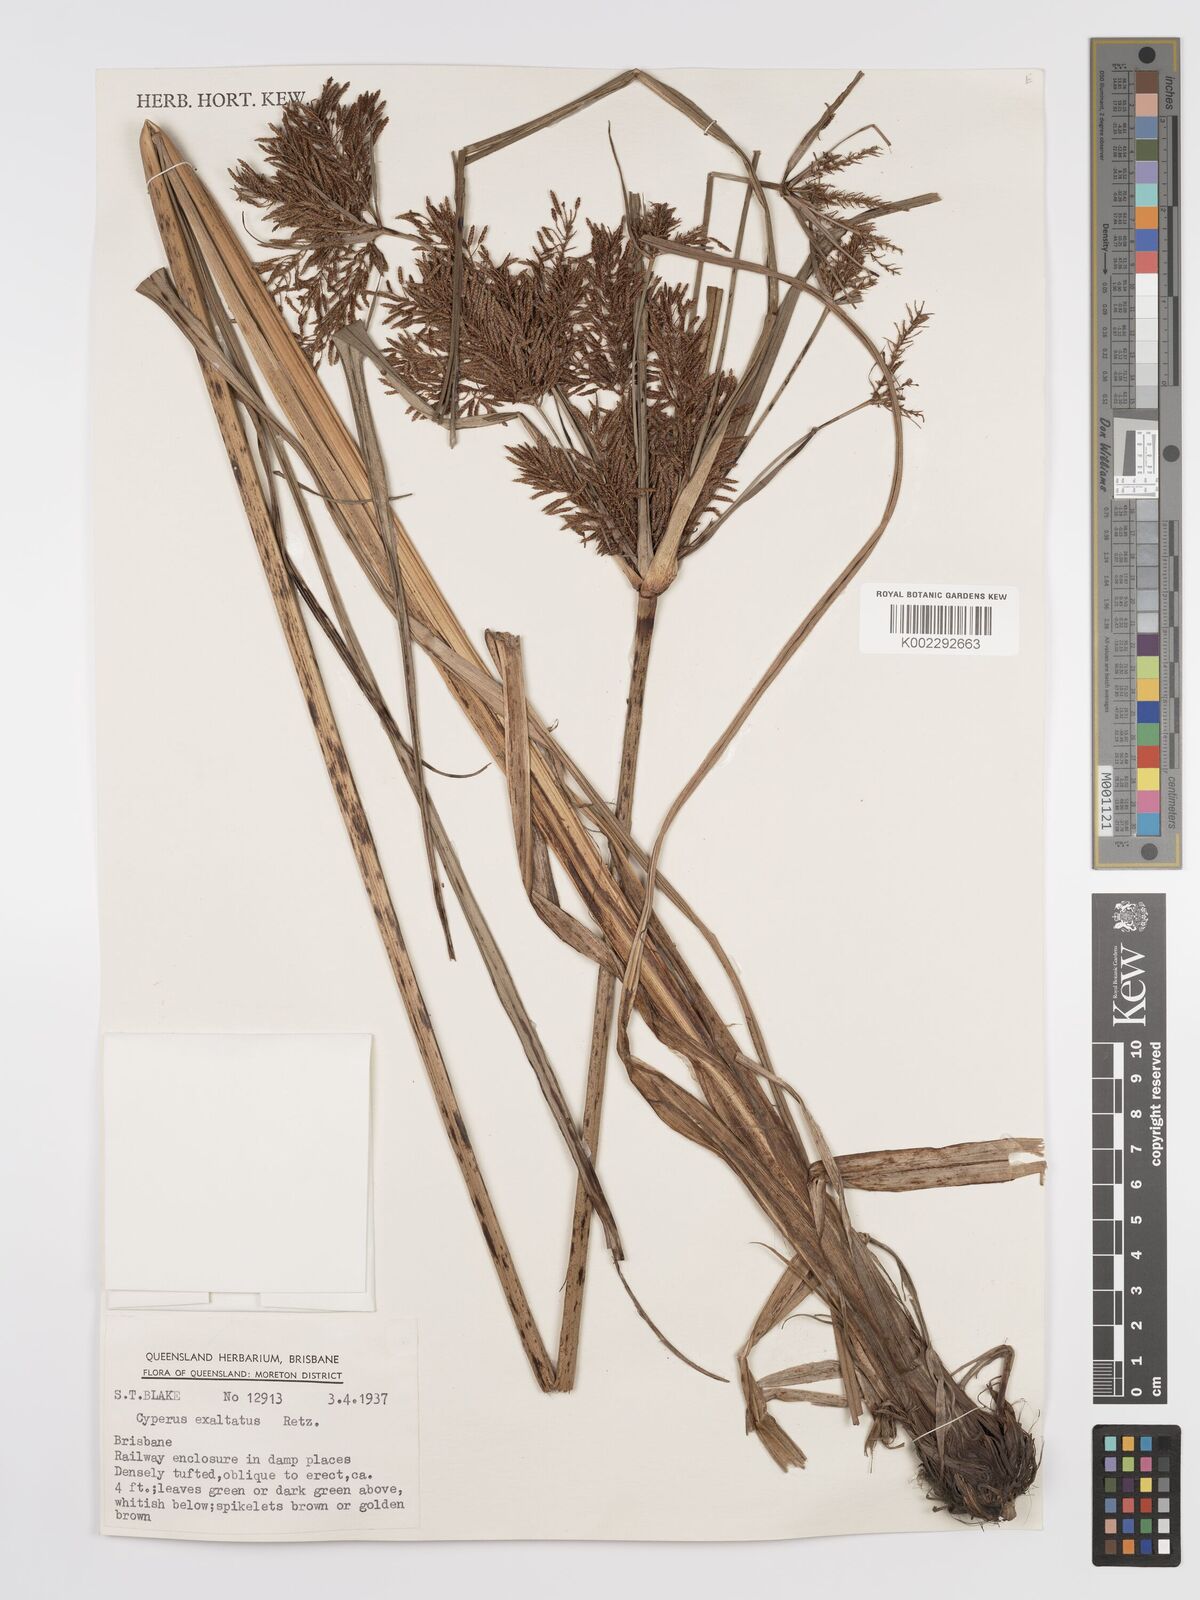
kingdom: Plantae
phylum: Tracheophyta
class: Liliopsida
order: Poales
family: Cyperaceae
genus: Cyperus
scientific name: Cyperus exaltatus
